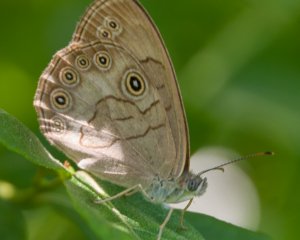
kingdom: Animalia
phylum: Arthropoda
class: Insecta
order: Lepidoptera
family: Nymphalidae
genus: Lethe
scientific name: Lethe eurydice
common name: Appalachian Eyed Brown
